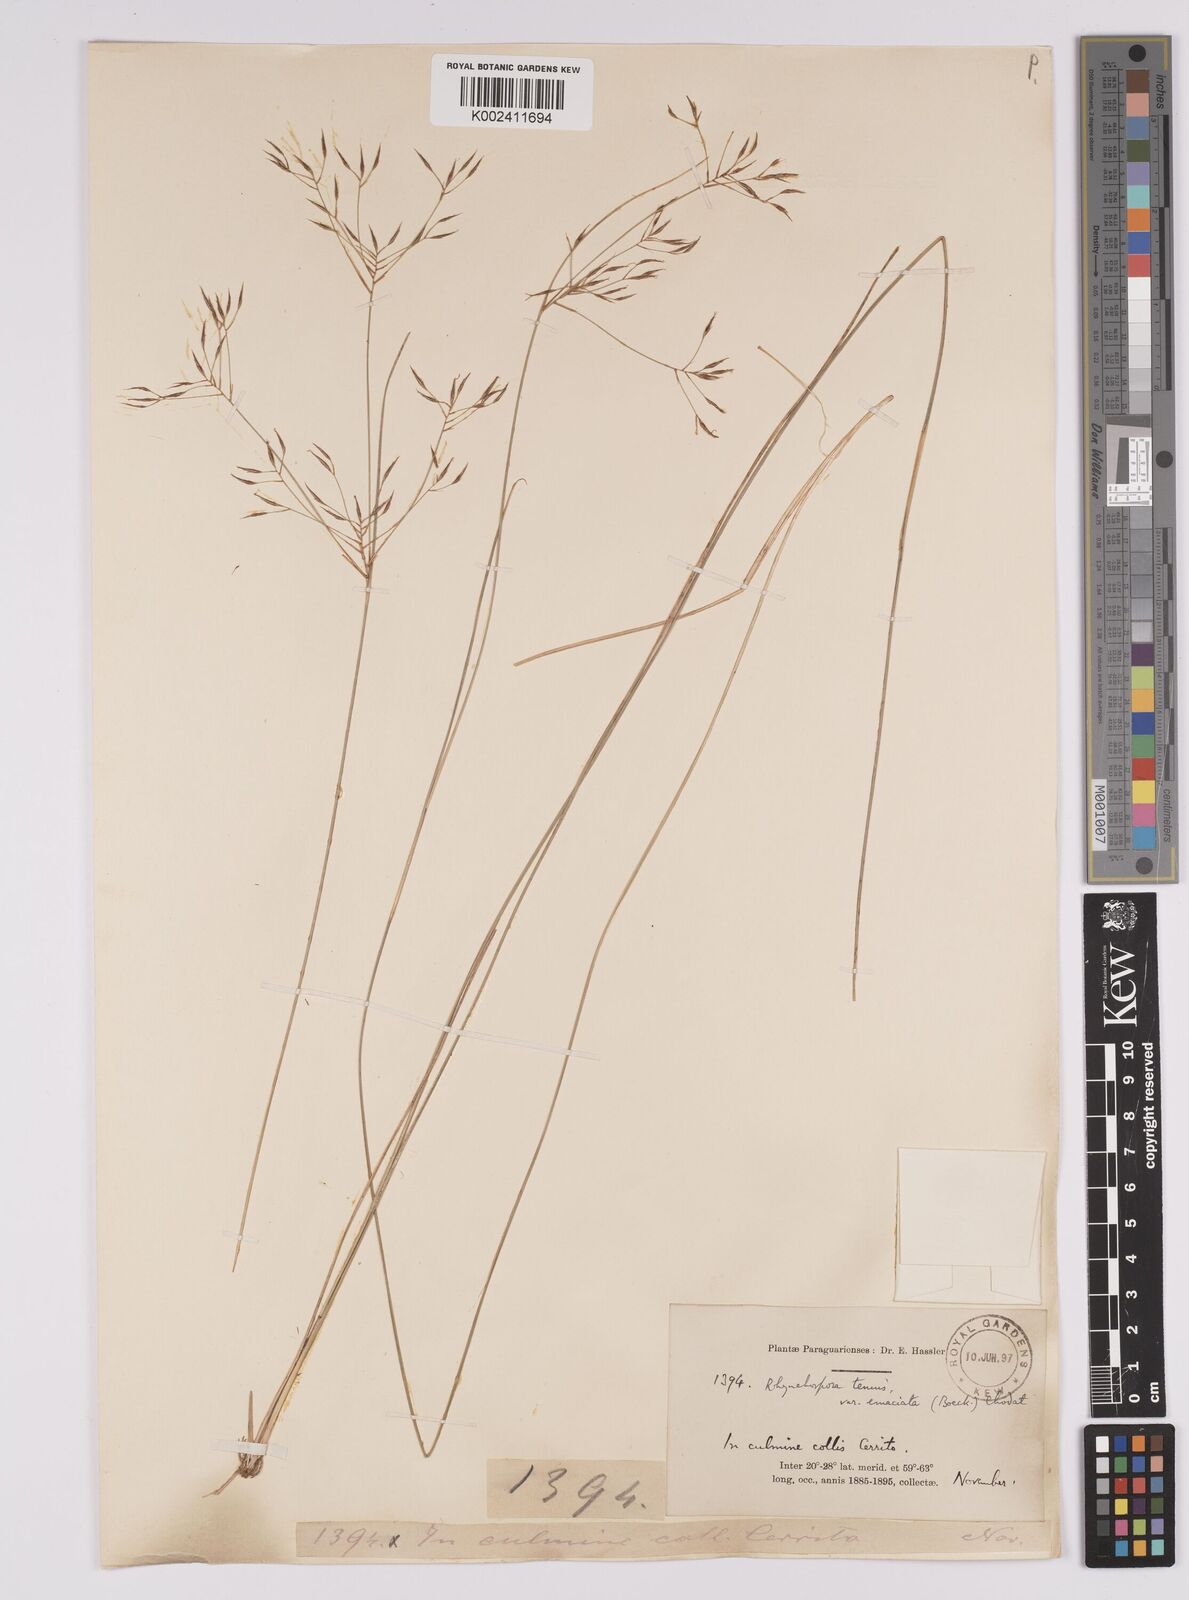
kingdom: Plantae
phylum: Tracheophyta
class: Liliopsida
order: Poales
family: Cyperaceae
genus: Rhynchospora
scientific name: Rhynchospora tenuis
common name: Quill beaksedge
